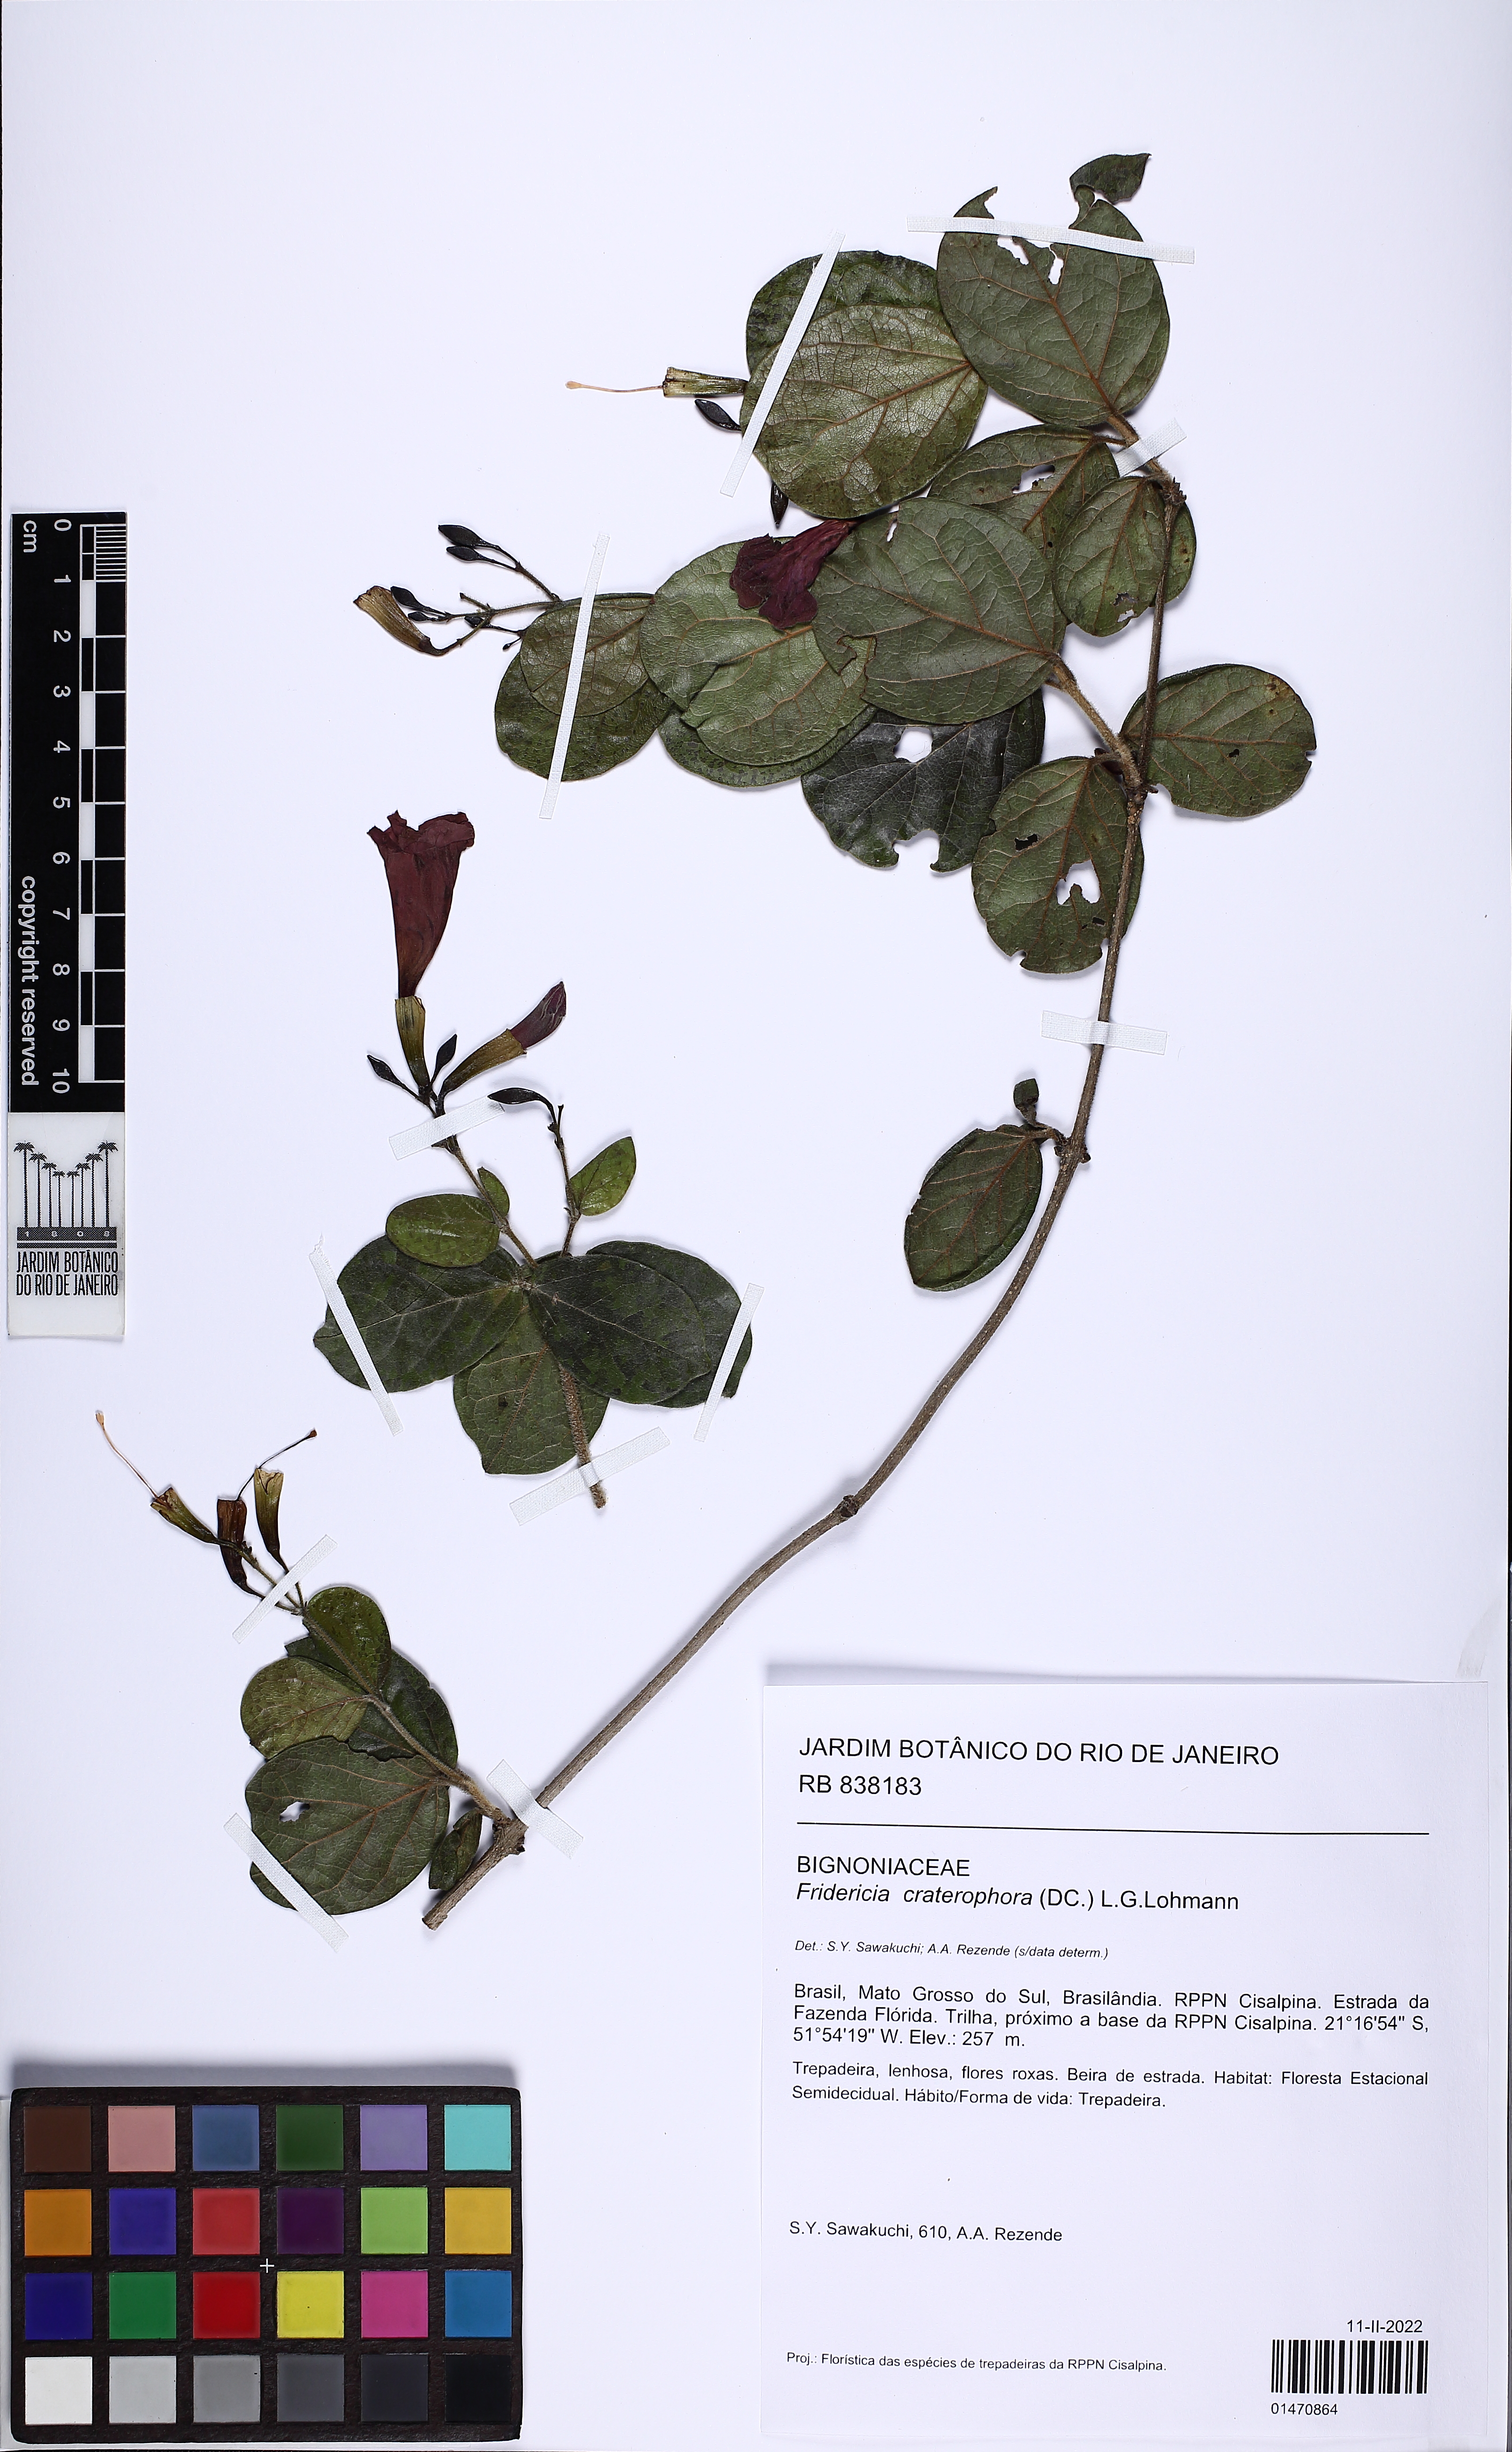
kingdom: Plantae
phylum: Tracheophyta
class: Magnoliopsida
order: Lamiales
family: Bignoniaceae
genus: Fridericia
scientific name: Fridericia craterophora
